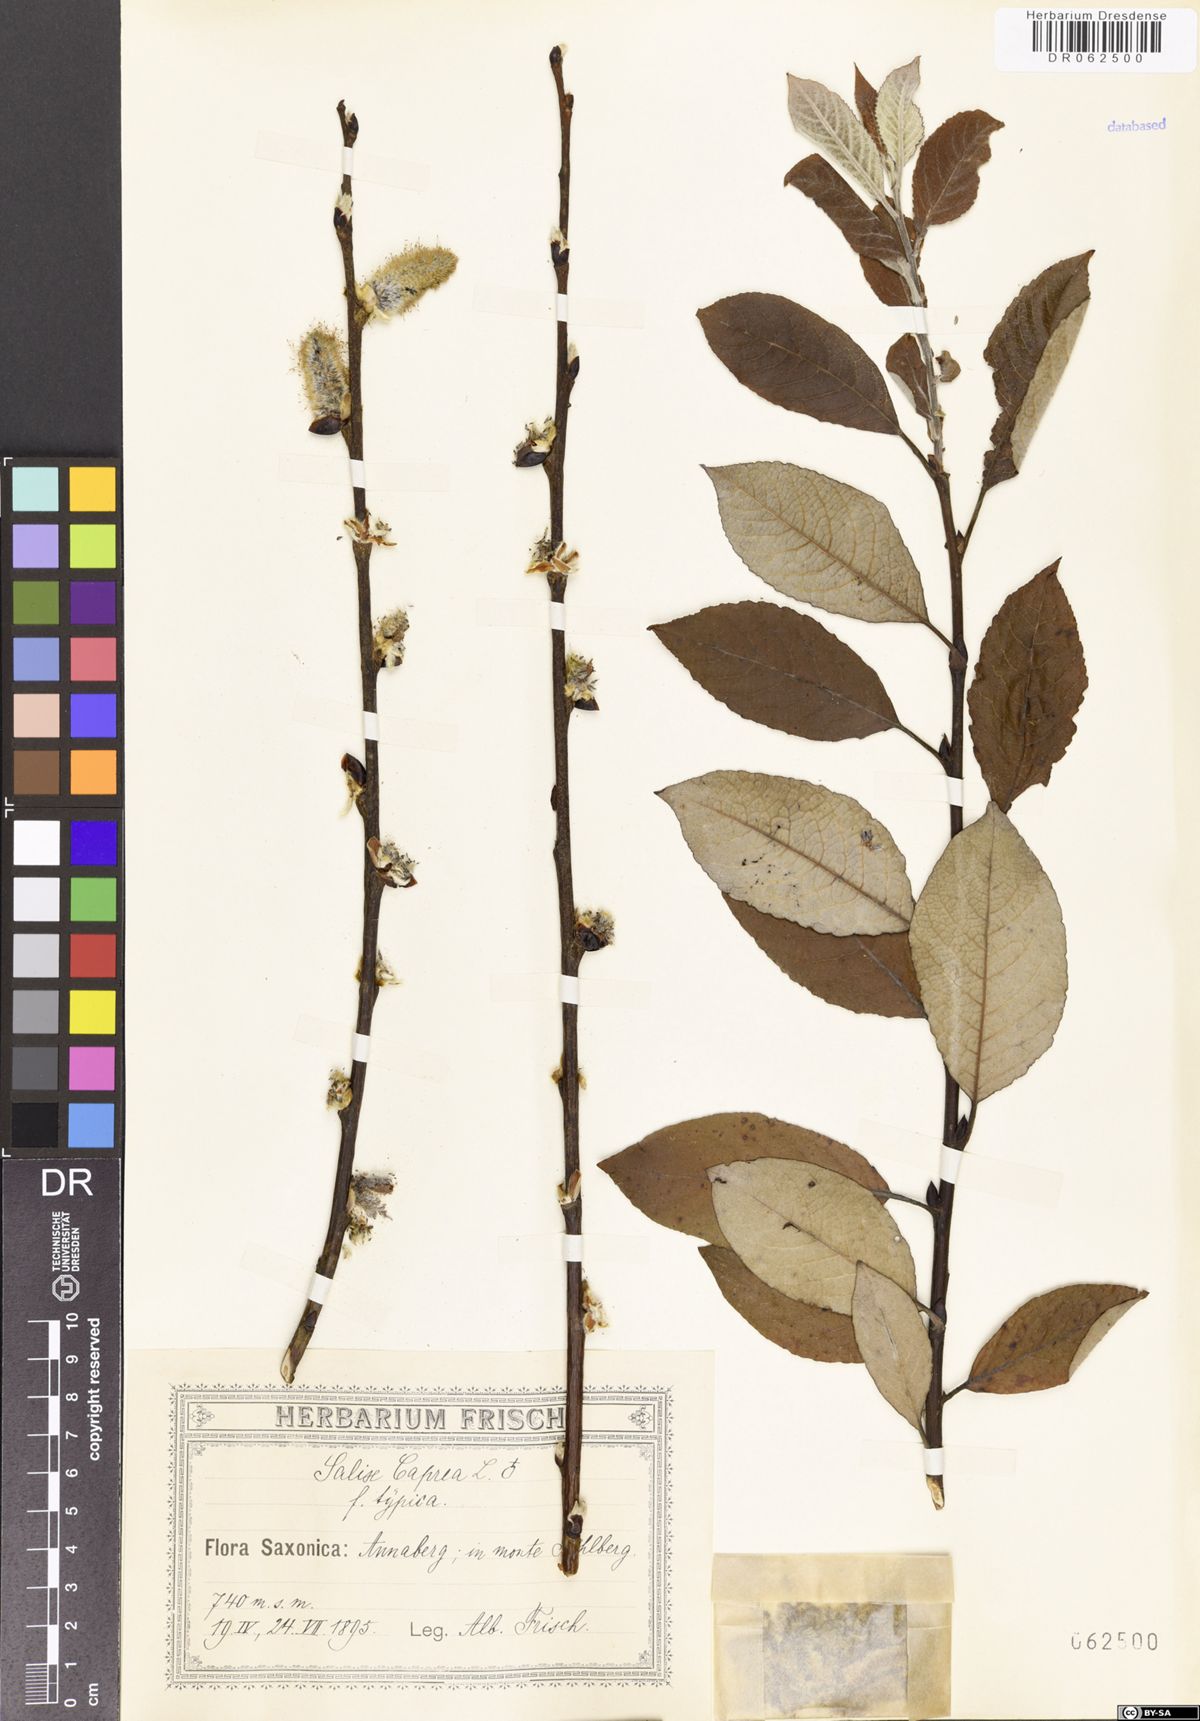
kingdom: Plantae
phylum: Tracheophyta
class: Magnoliopsida
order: Malpighiales
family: Salicaceae
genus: Salix
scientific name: Salix caprea
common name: Goat willow
